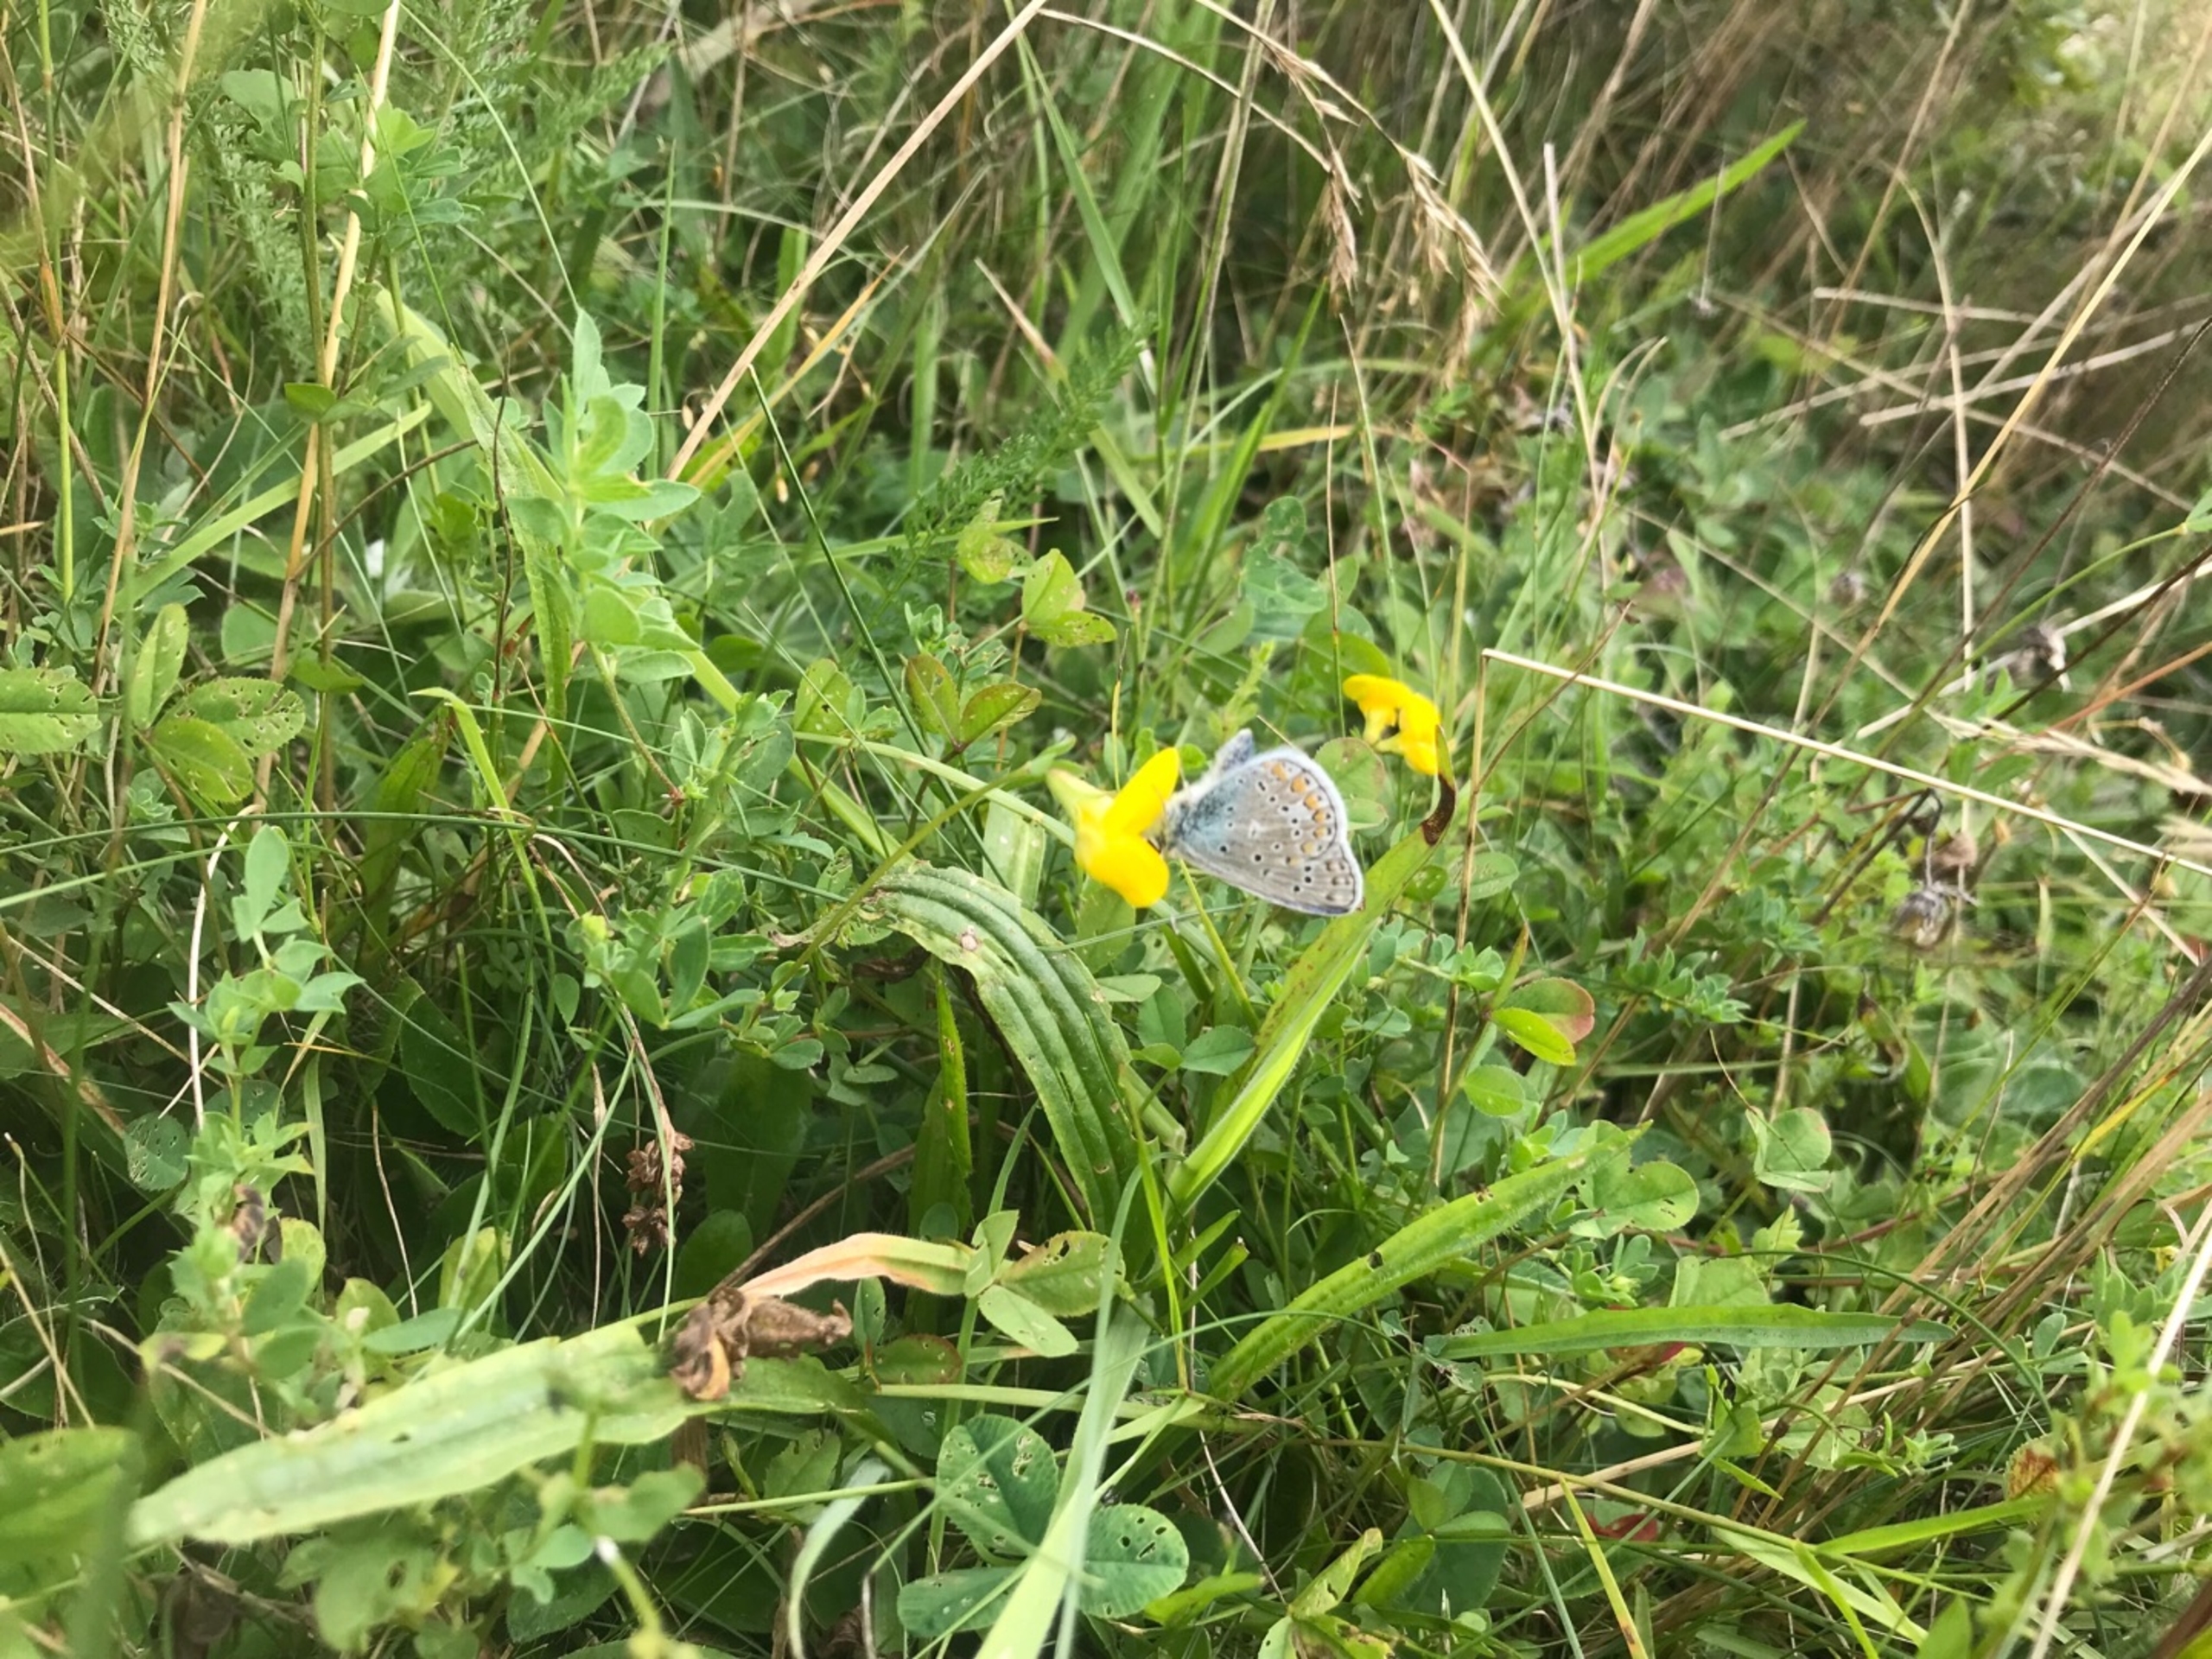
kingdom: Animalia
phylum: Arthropoda
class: Insecta
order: Lepidoptera
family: Lycaenidae
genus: Polyommatus
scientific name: Polyommatus icarus
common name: Almindelig blåfugl
